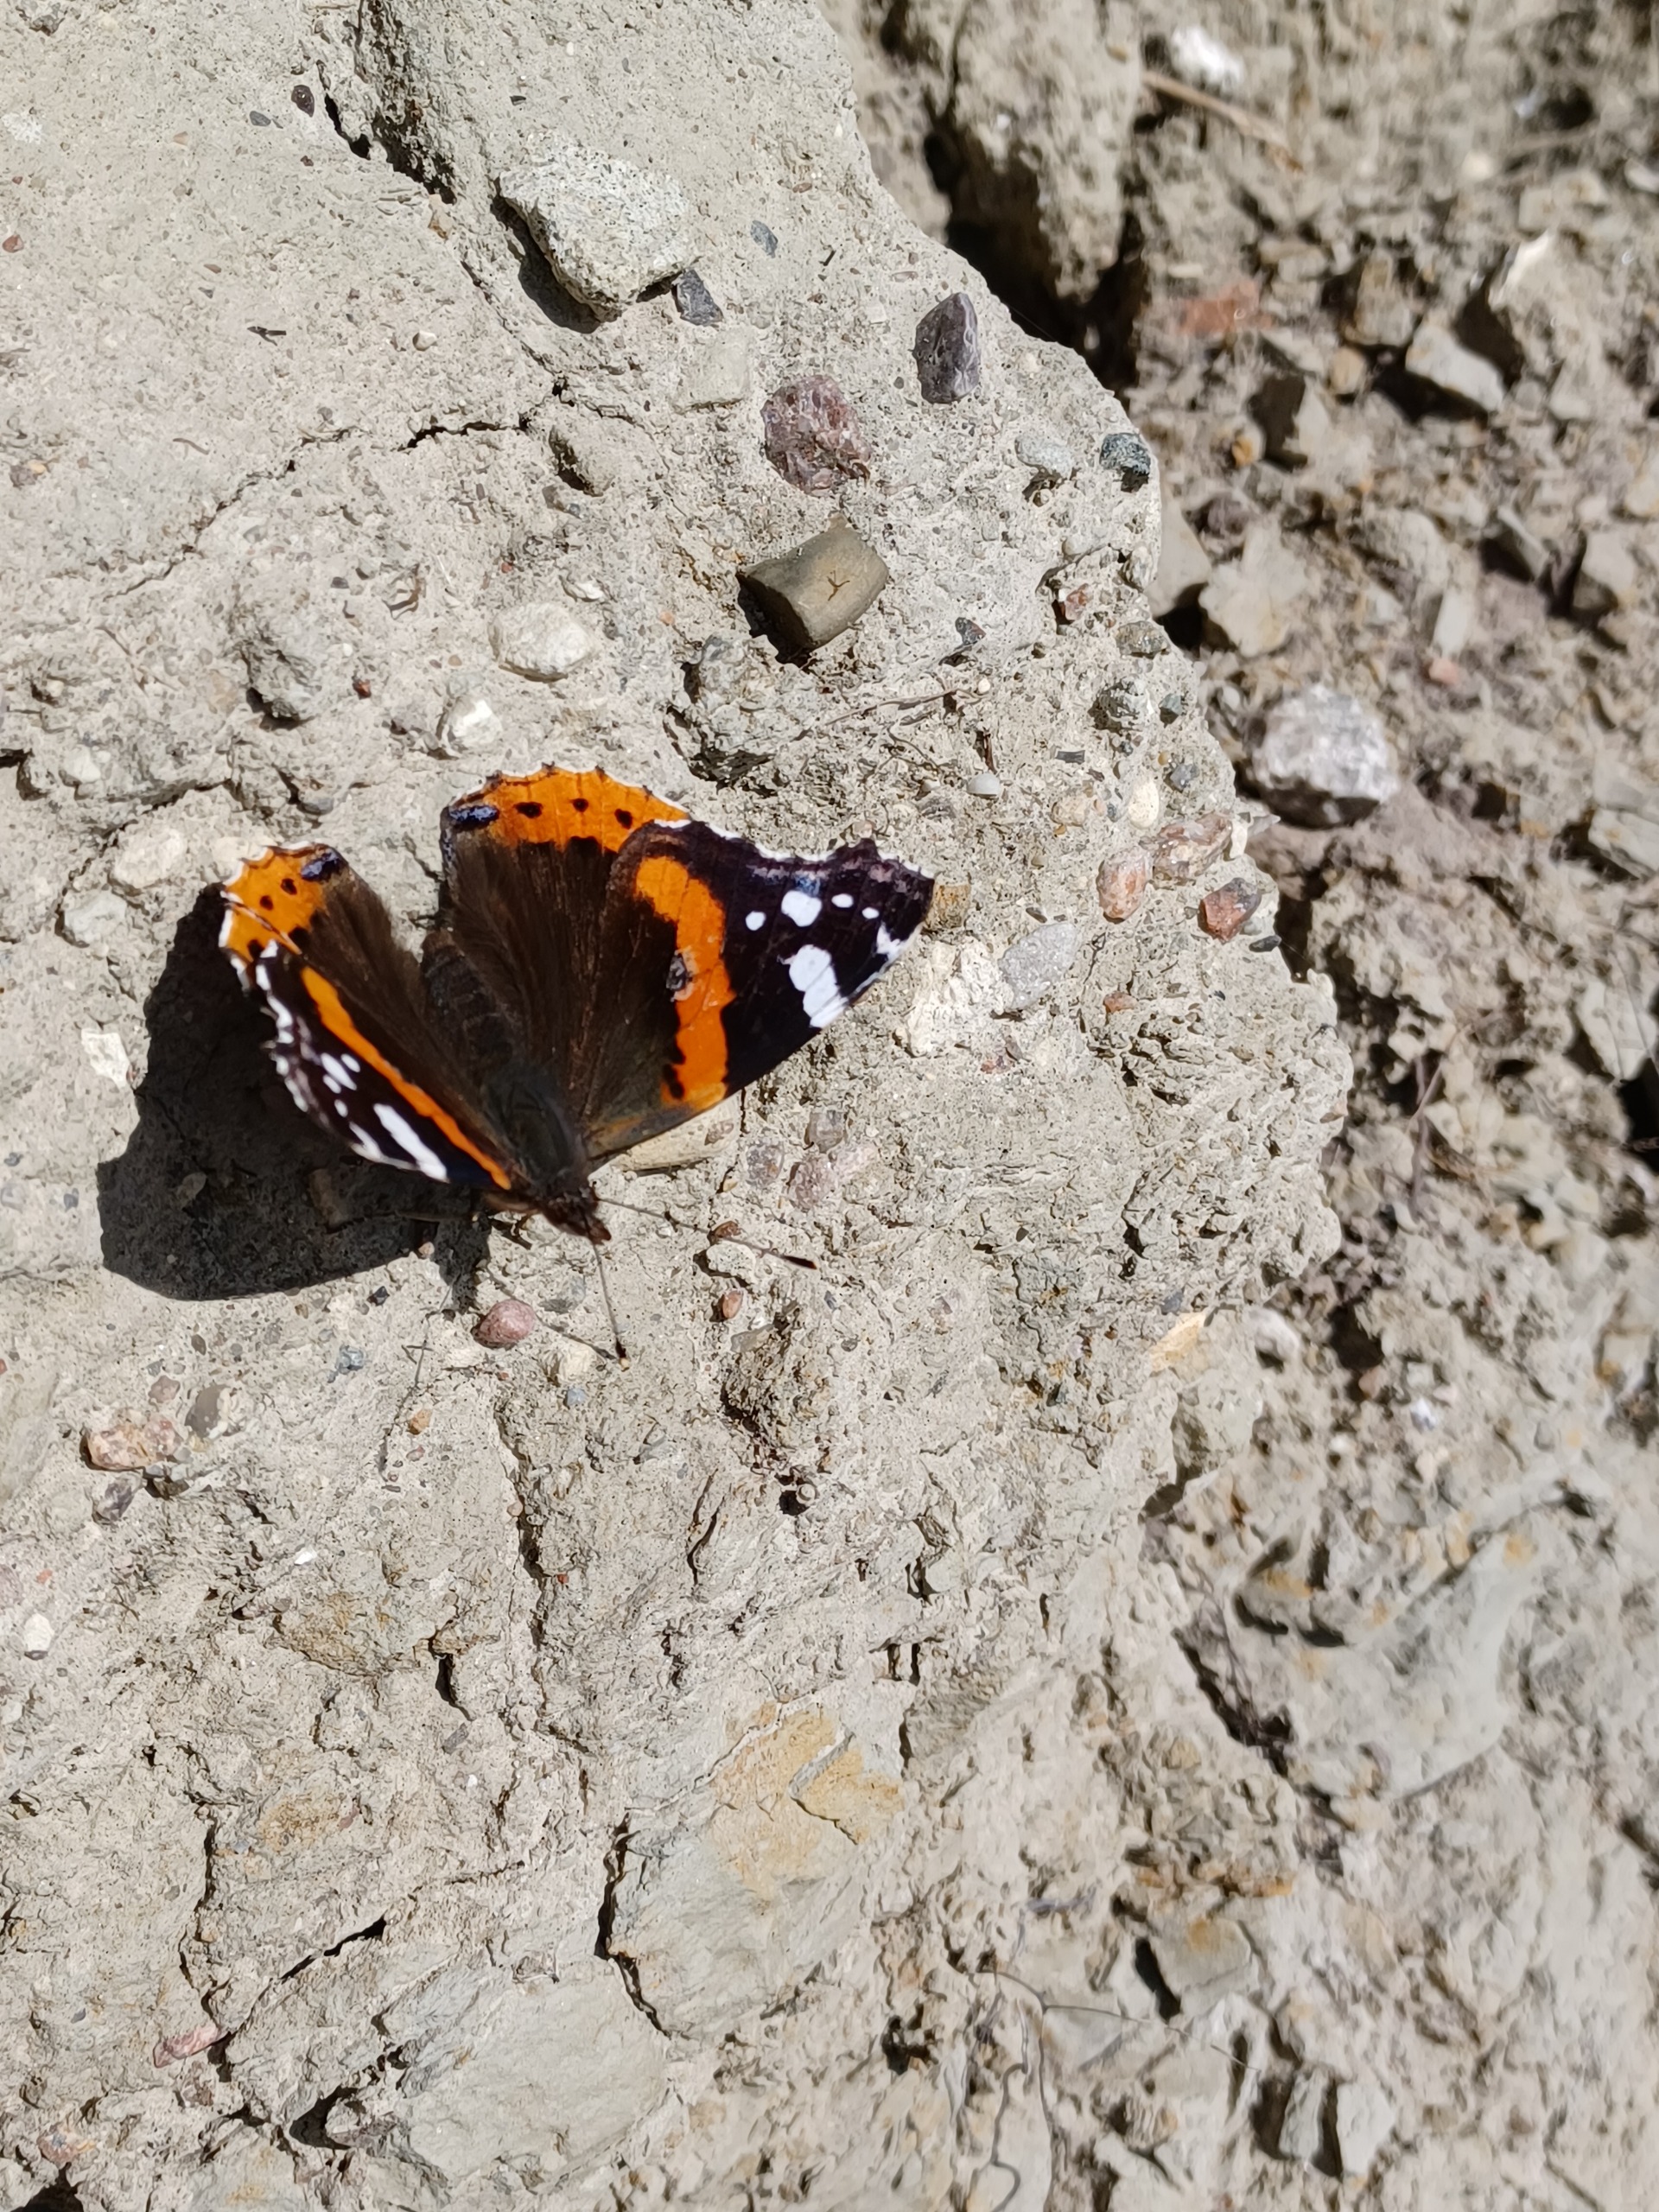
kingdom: Animalia
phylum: Arthropoda
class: Insecta
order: Lepidoptera
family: Nymphalidae
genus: Vanessa
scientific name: Vanessa atalanta
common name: Admiral
